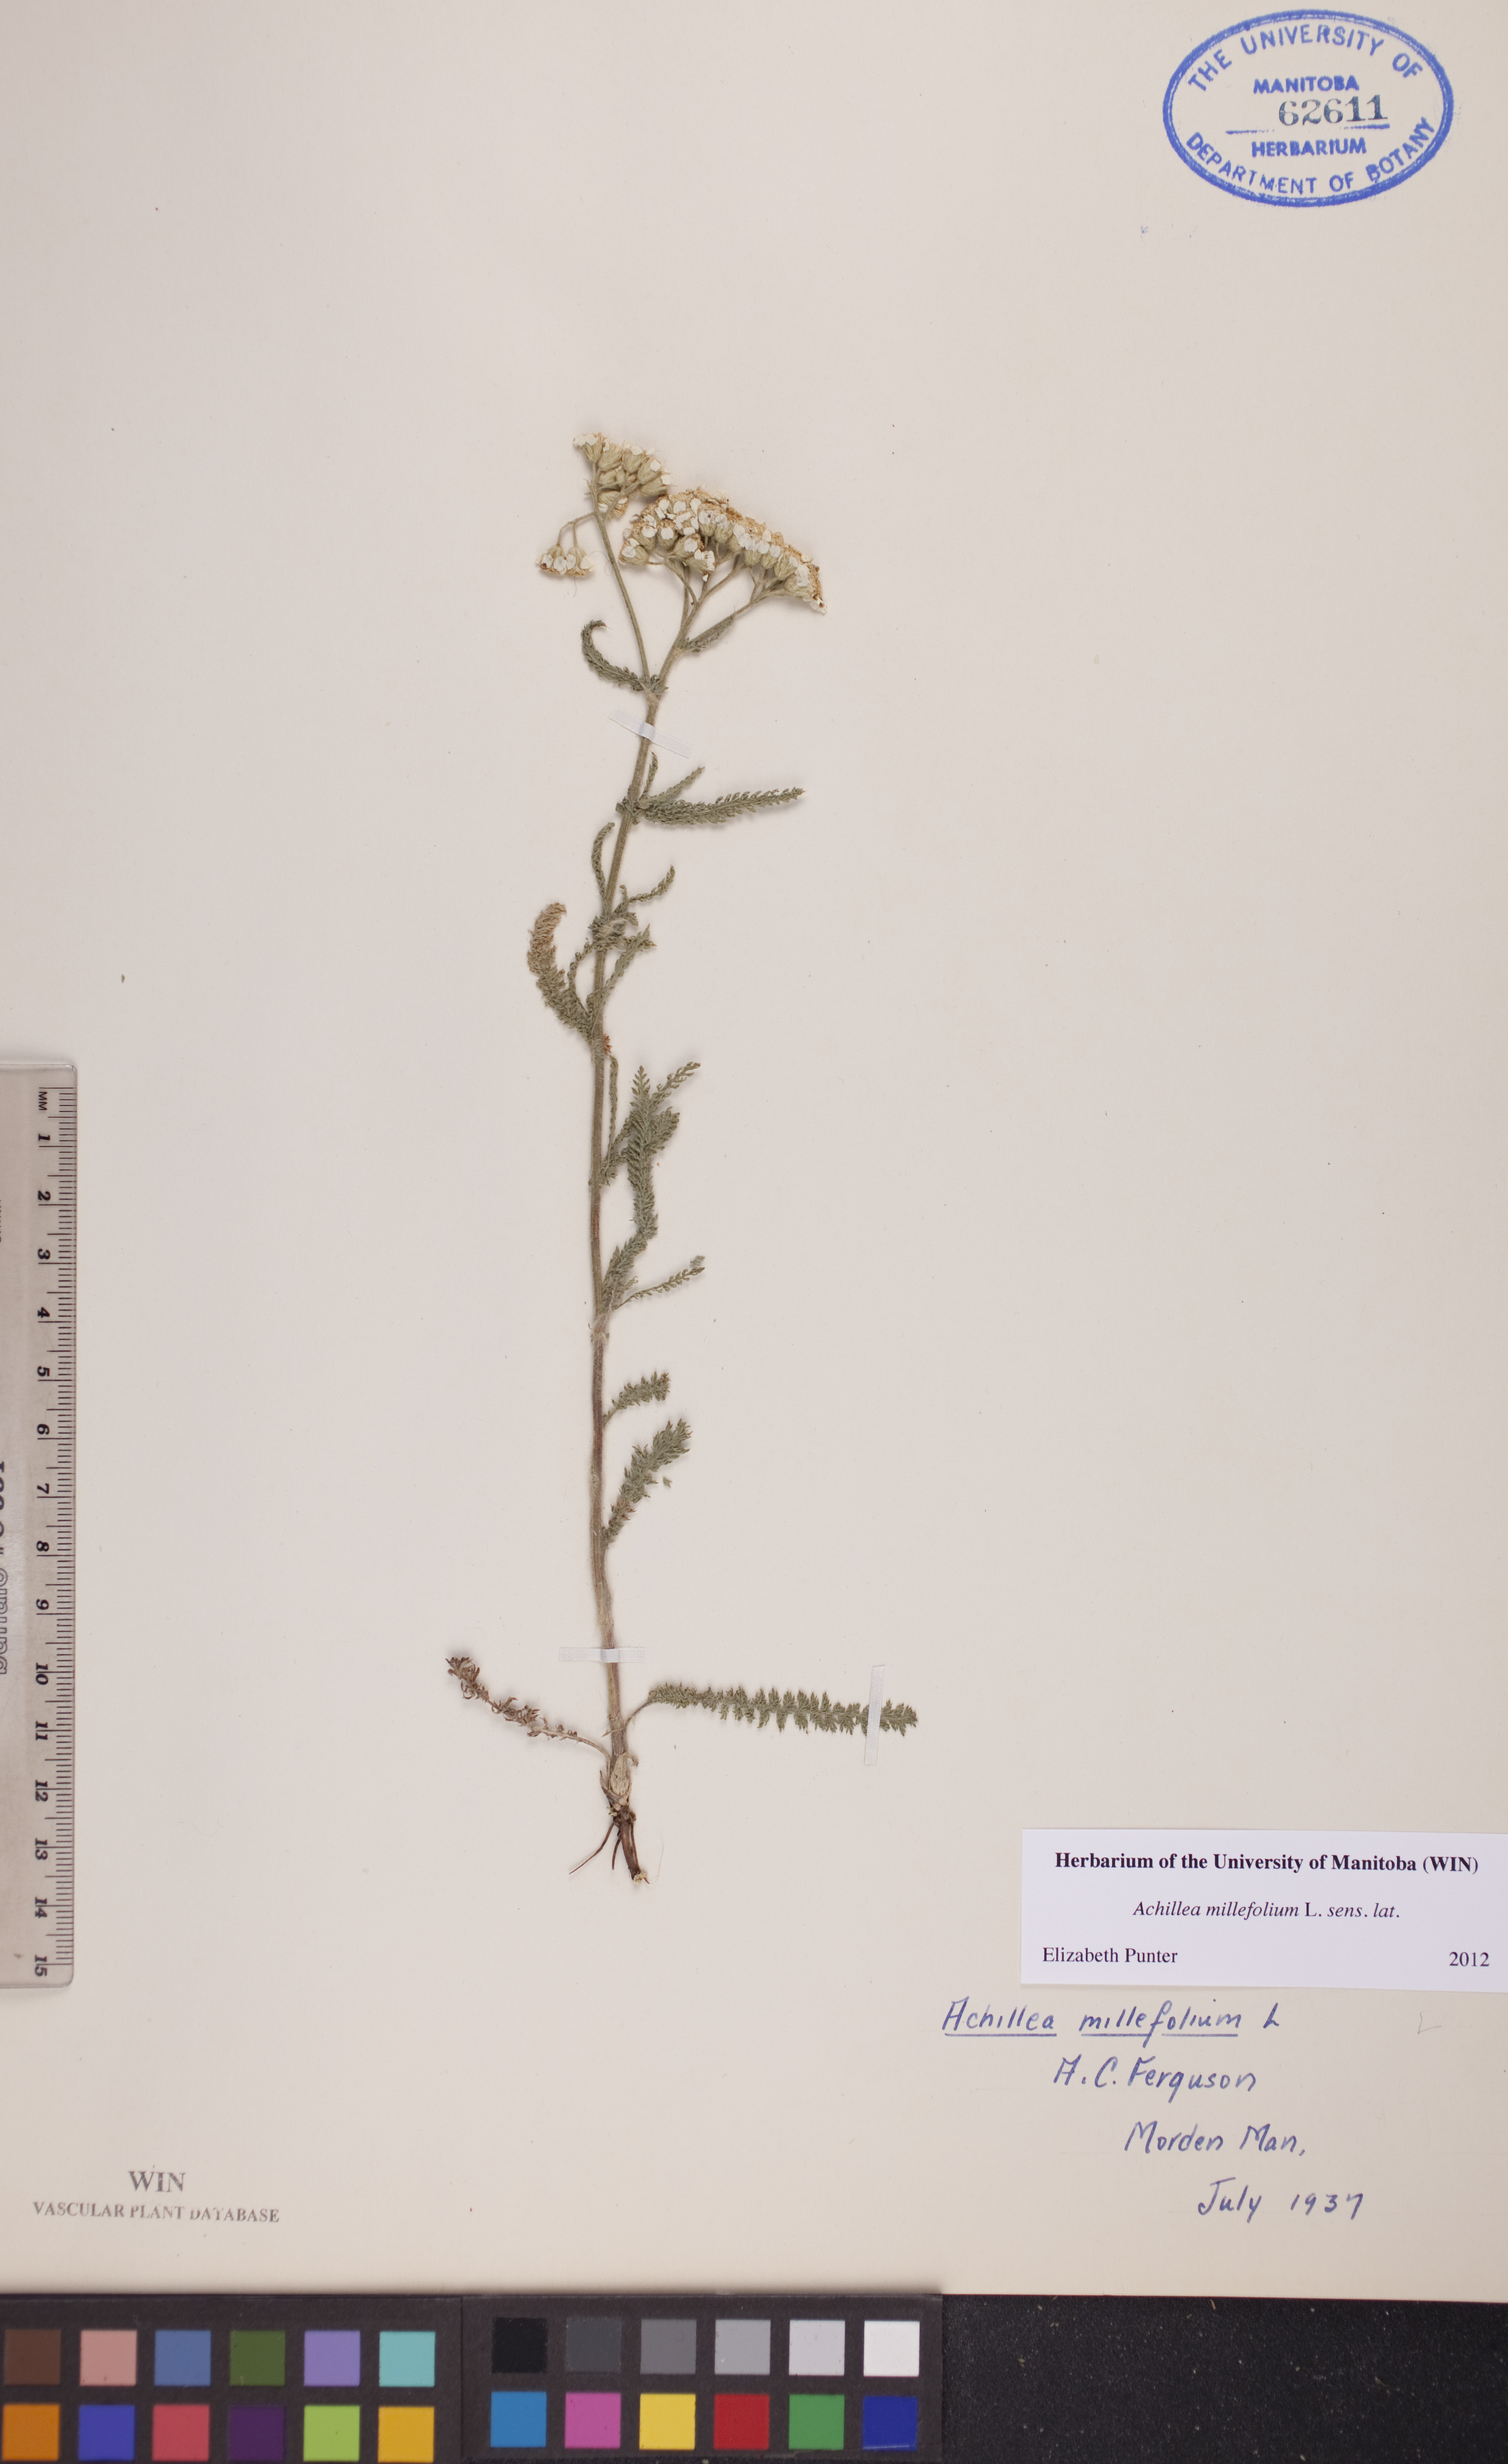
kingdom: Plantae
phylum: Tracheophyta
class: Magnoliopsida
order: Asterales
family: Asteraceae
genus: Achillea
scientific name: Achillea millefolium
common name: Yarrow
